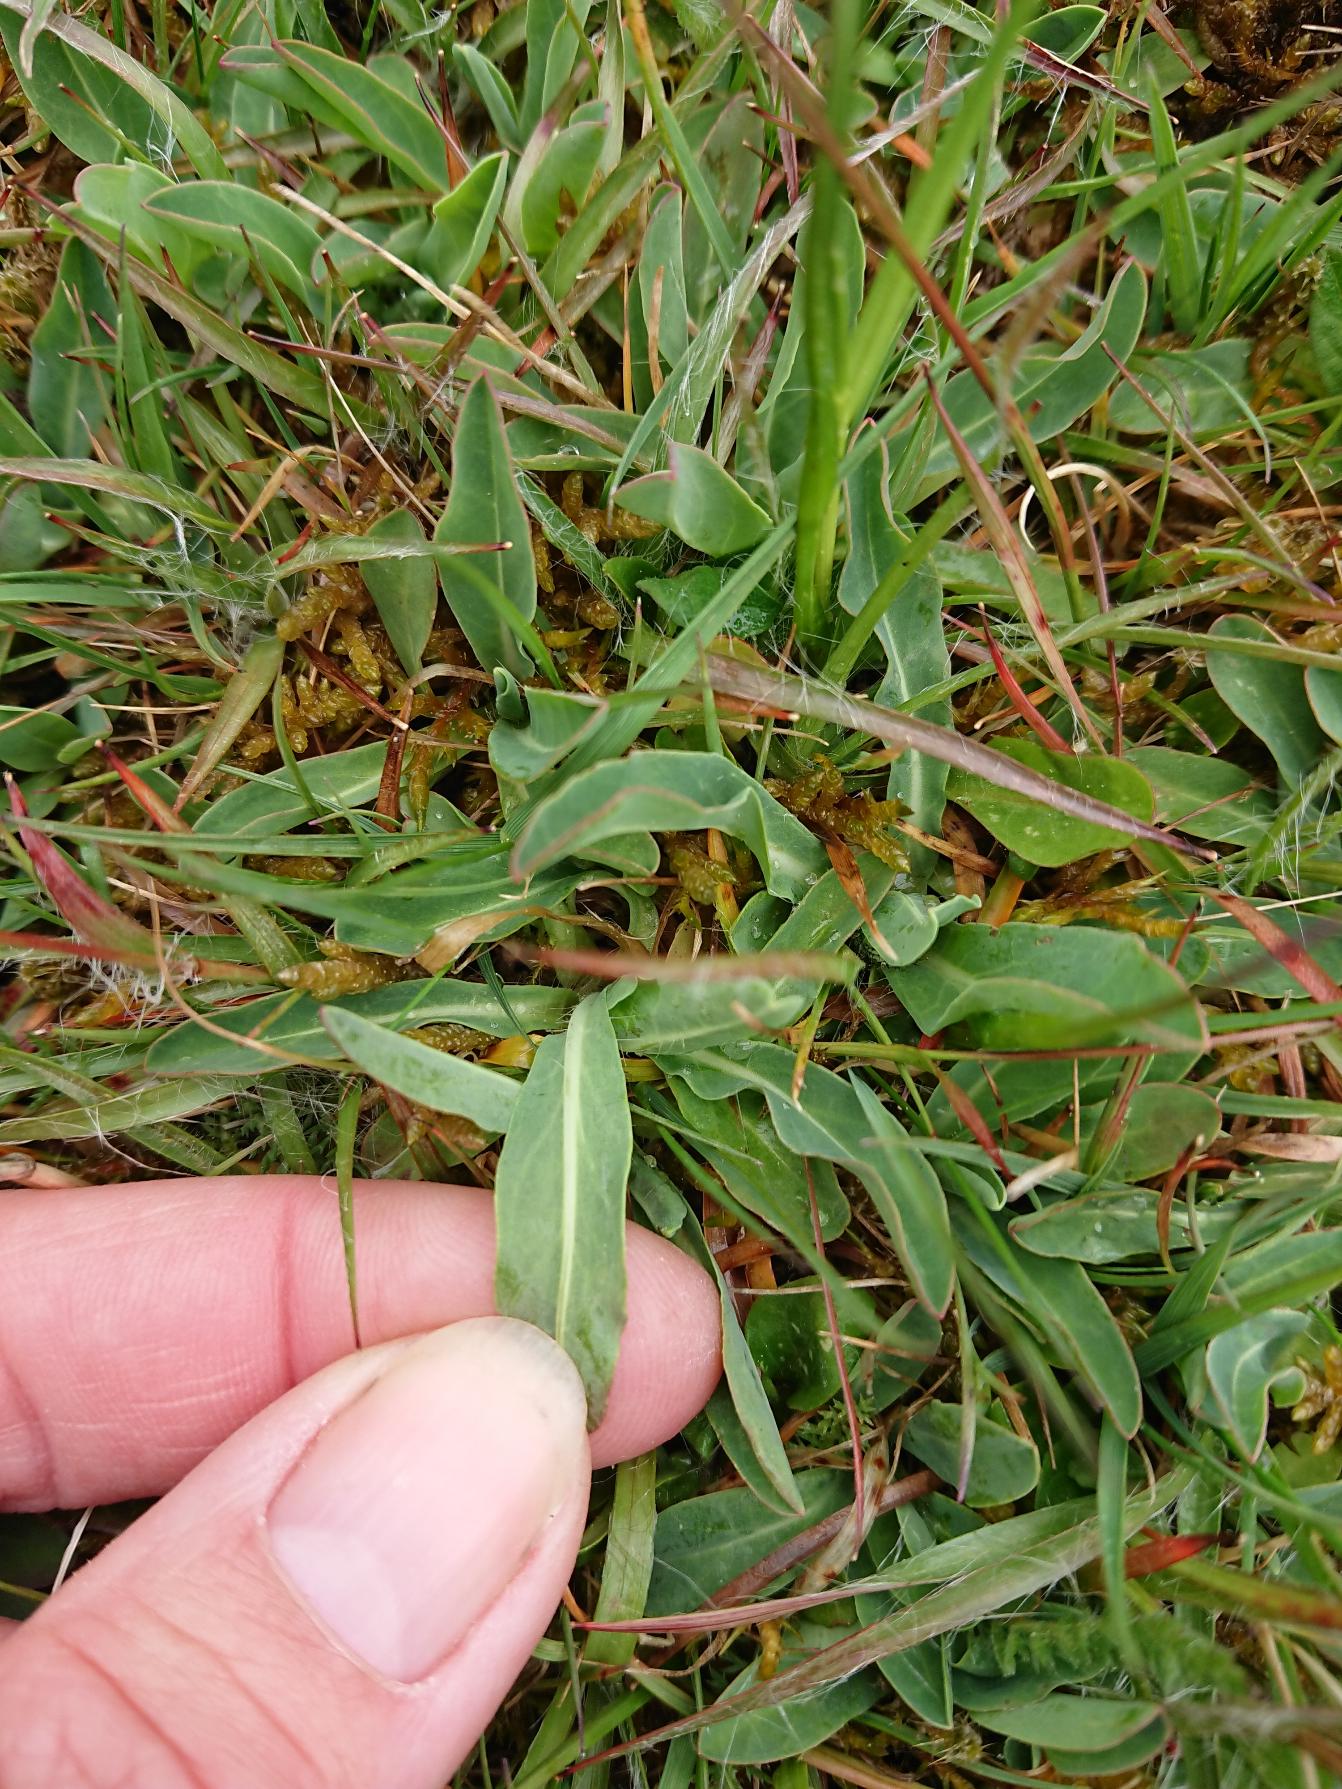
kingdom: Plantae
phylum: Tracheophyta
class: Magnoliopsida
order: Asterales
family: Asteraceae
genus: Pilosella
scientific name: Pilosella lactucella
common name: Lancetbladet høgeurt
